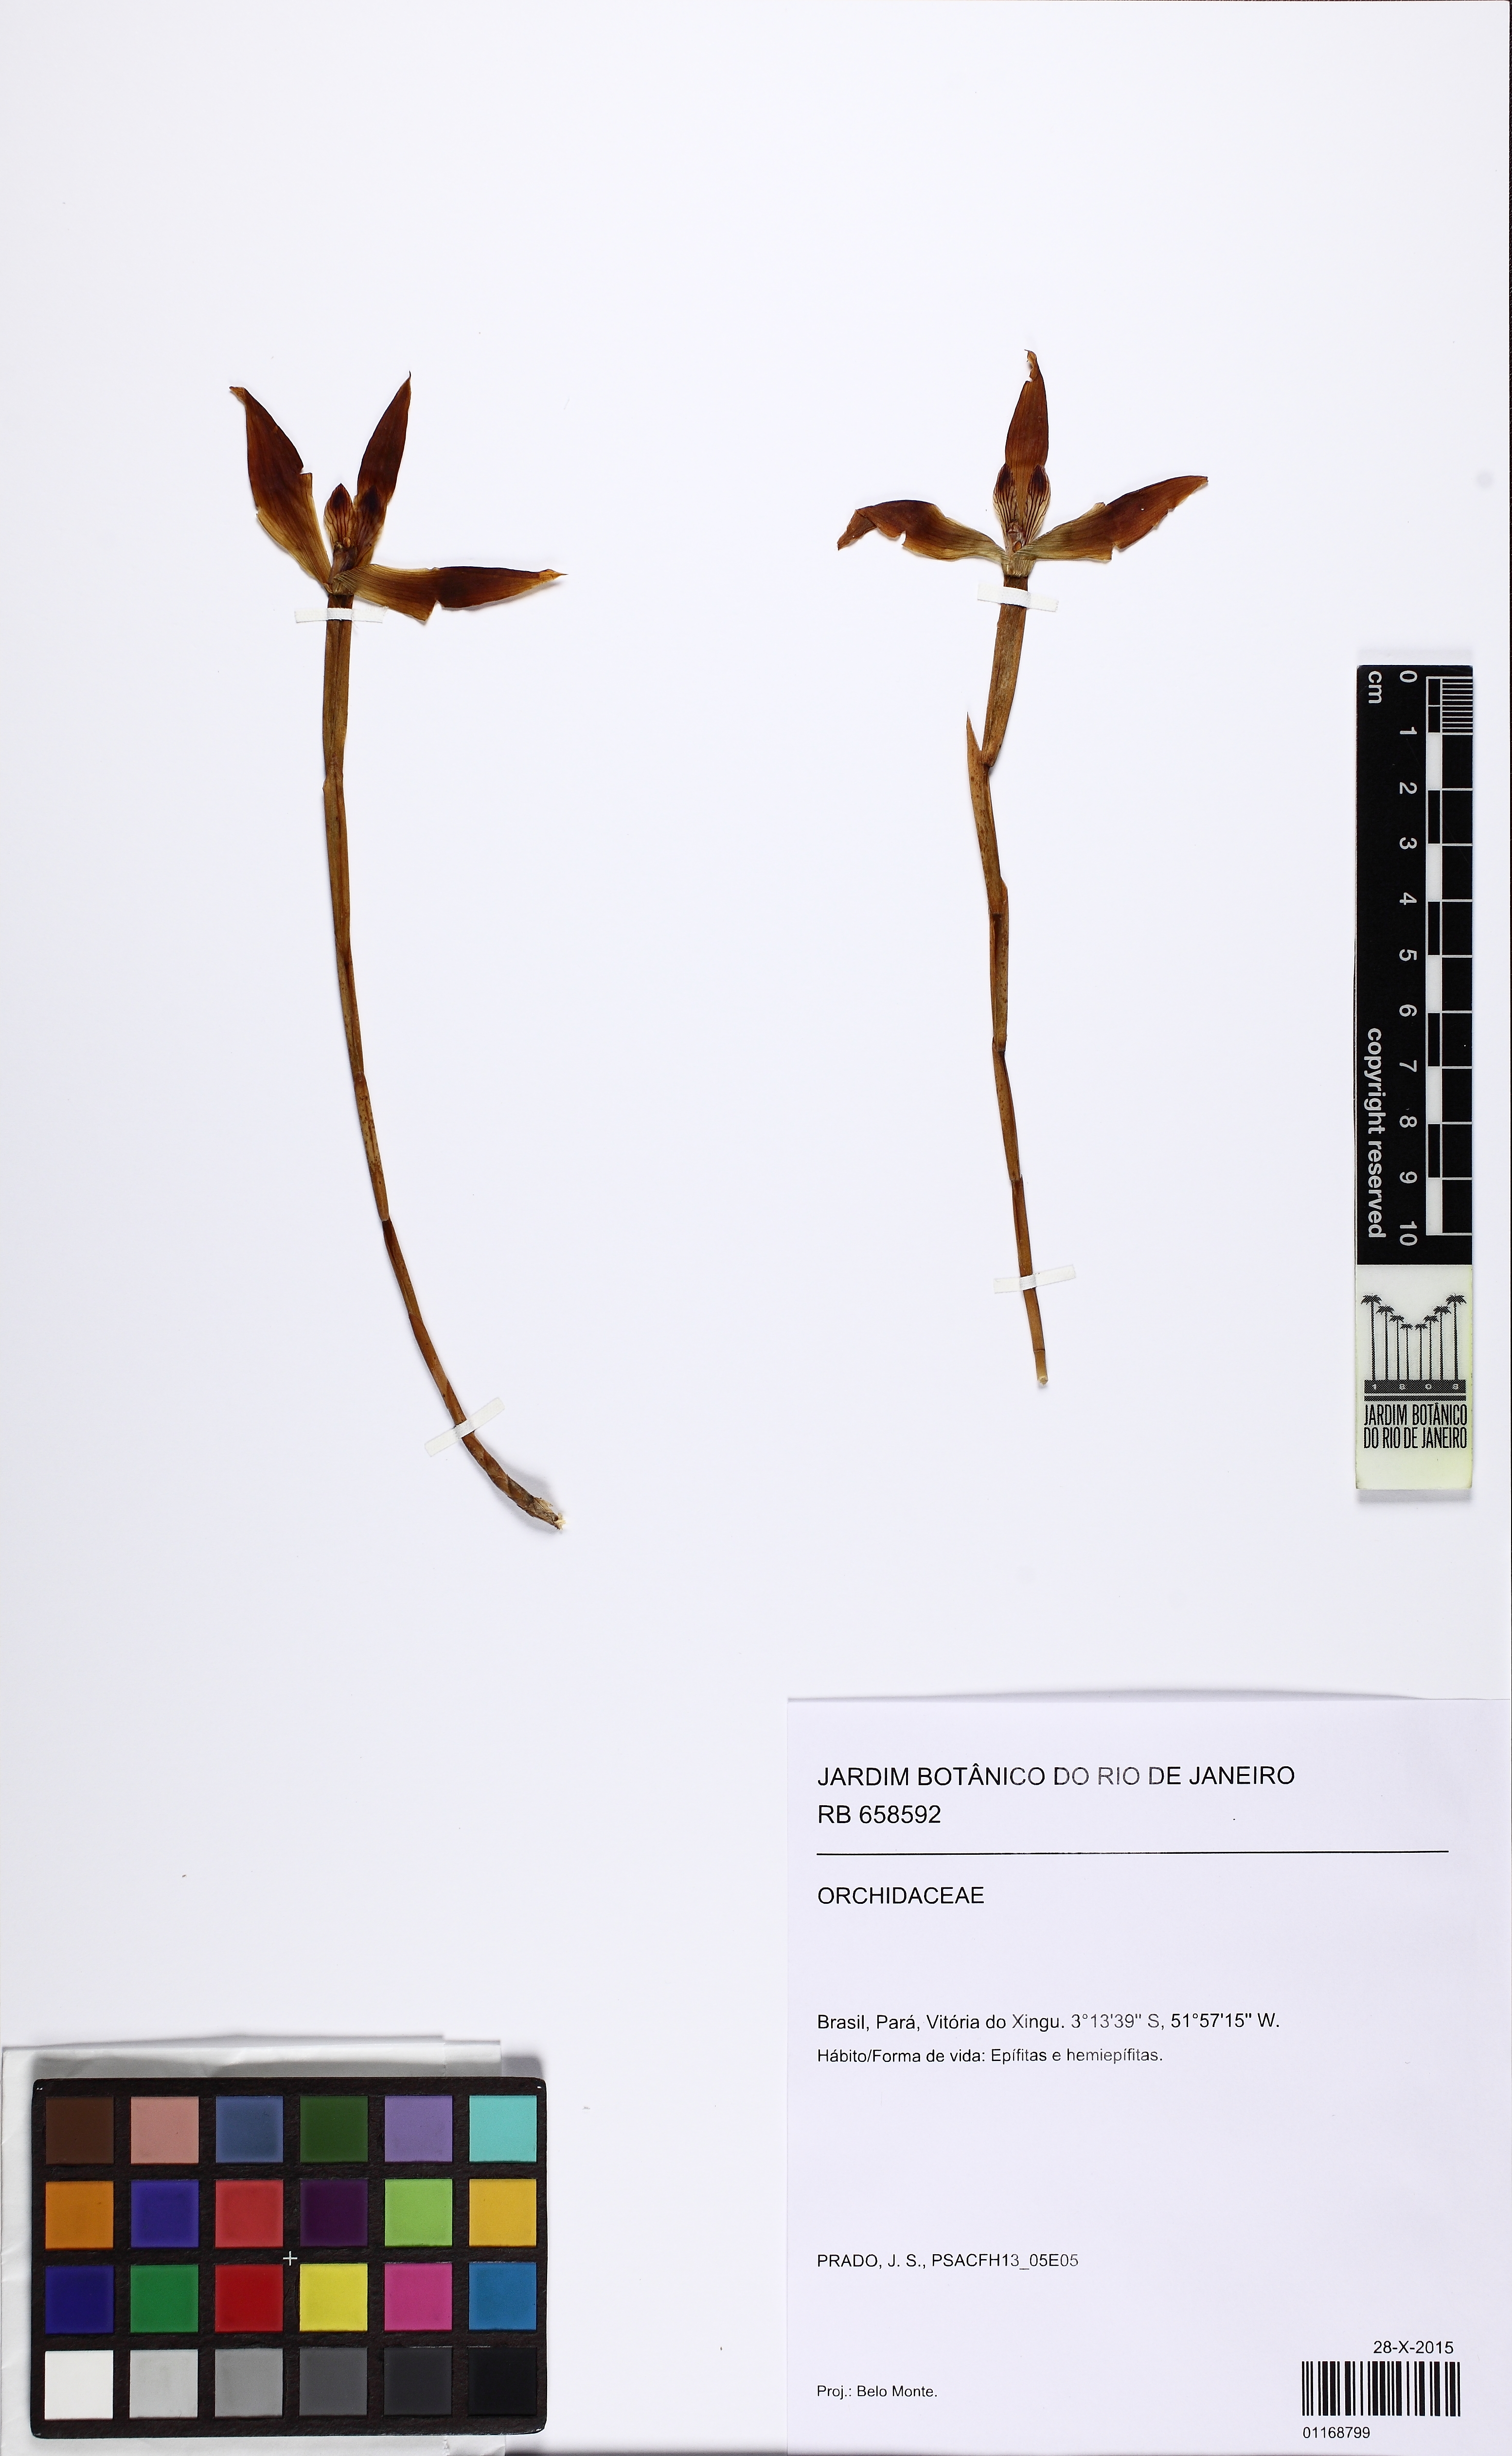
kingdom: Plantae
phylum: Tracheophyta
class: Liliopsida
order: Asparagales
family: Orchidaceae
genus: Maxillaria
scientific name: Maxillaria obtusa
